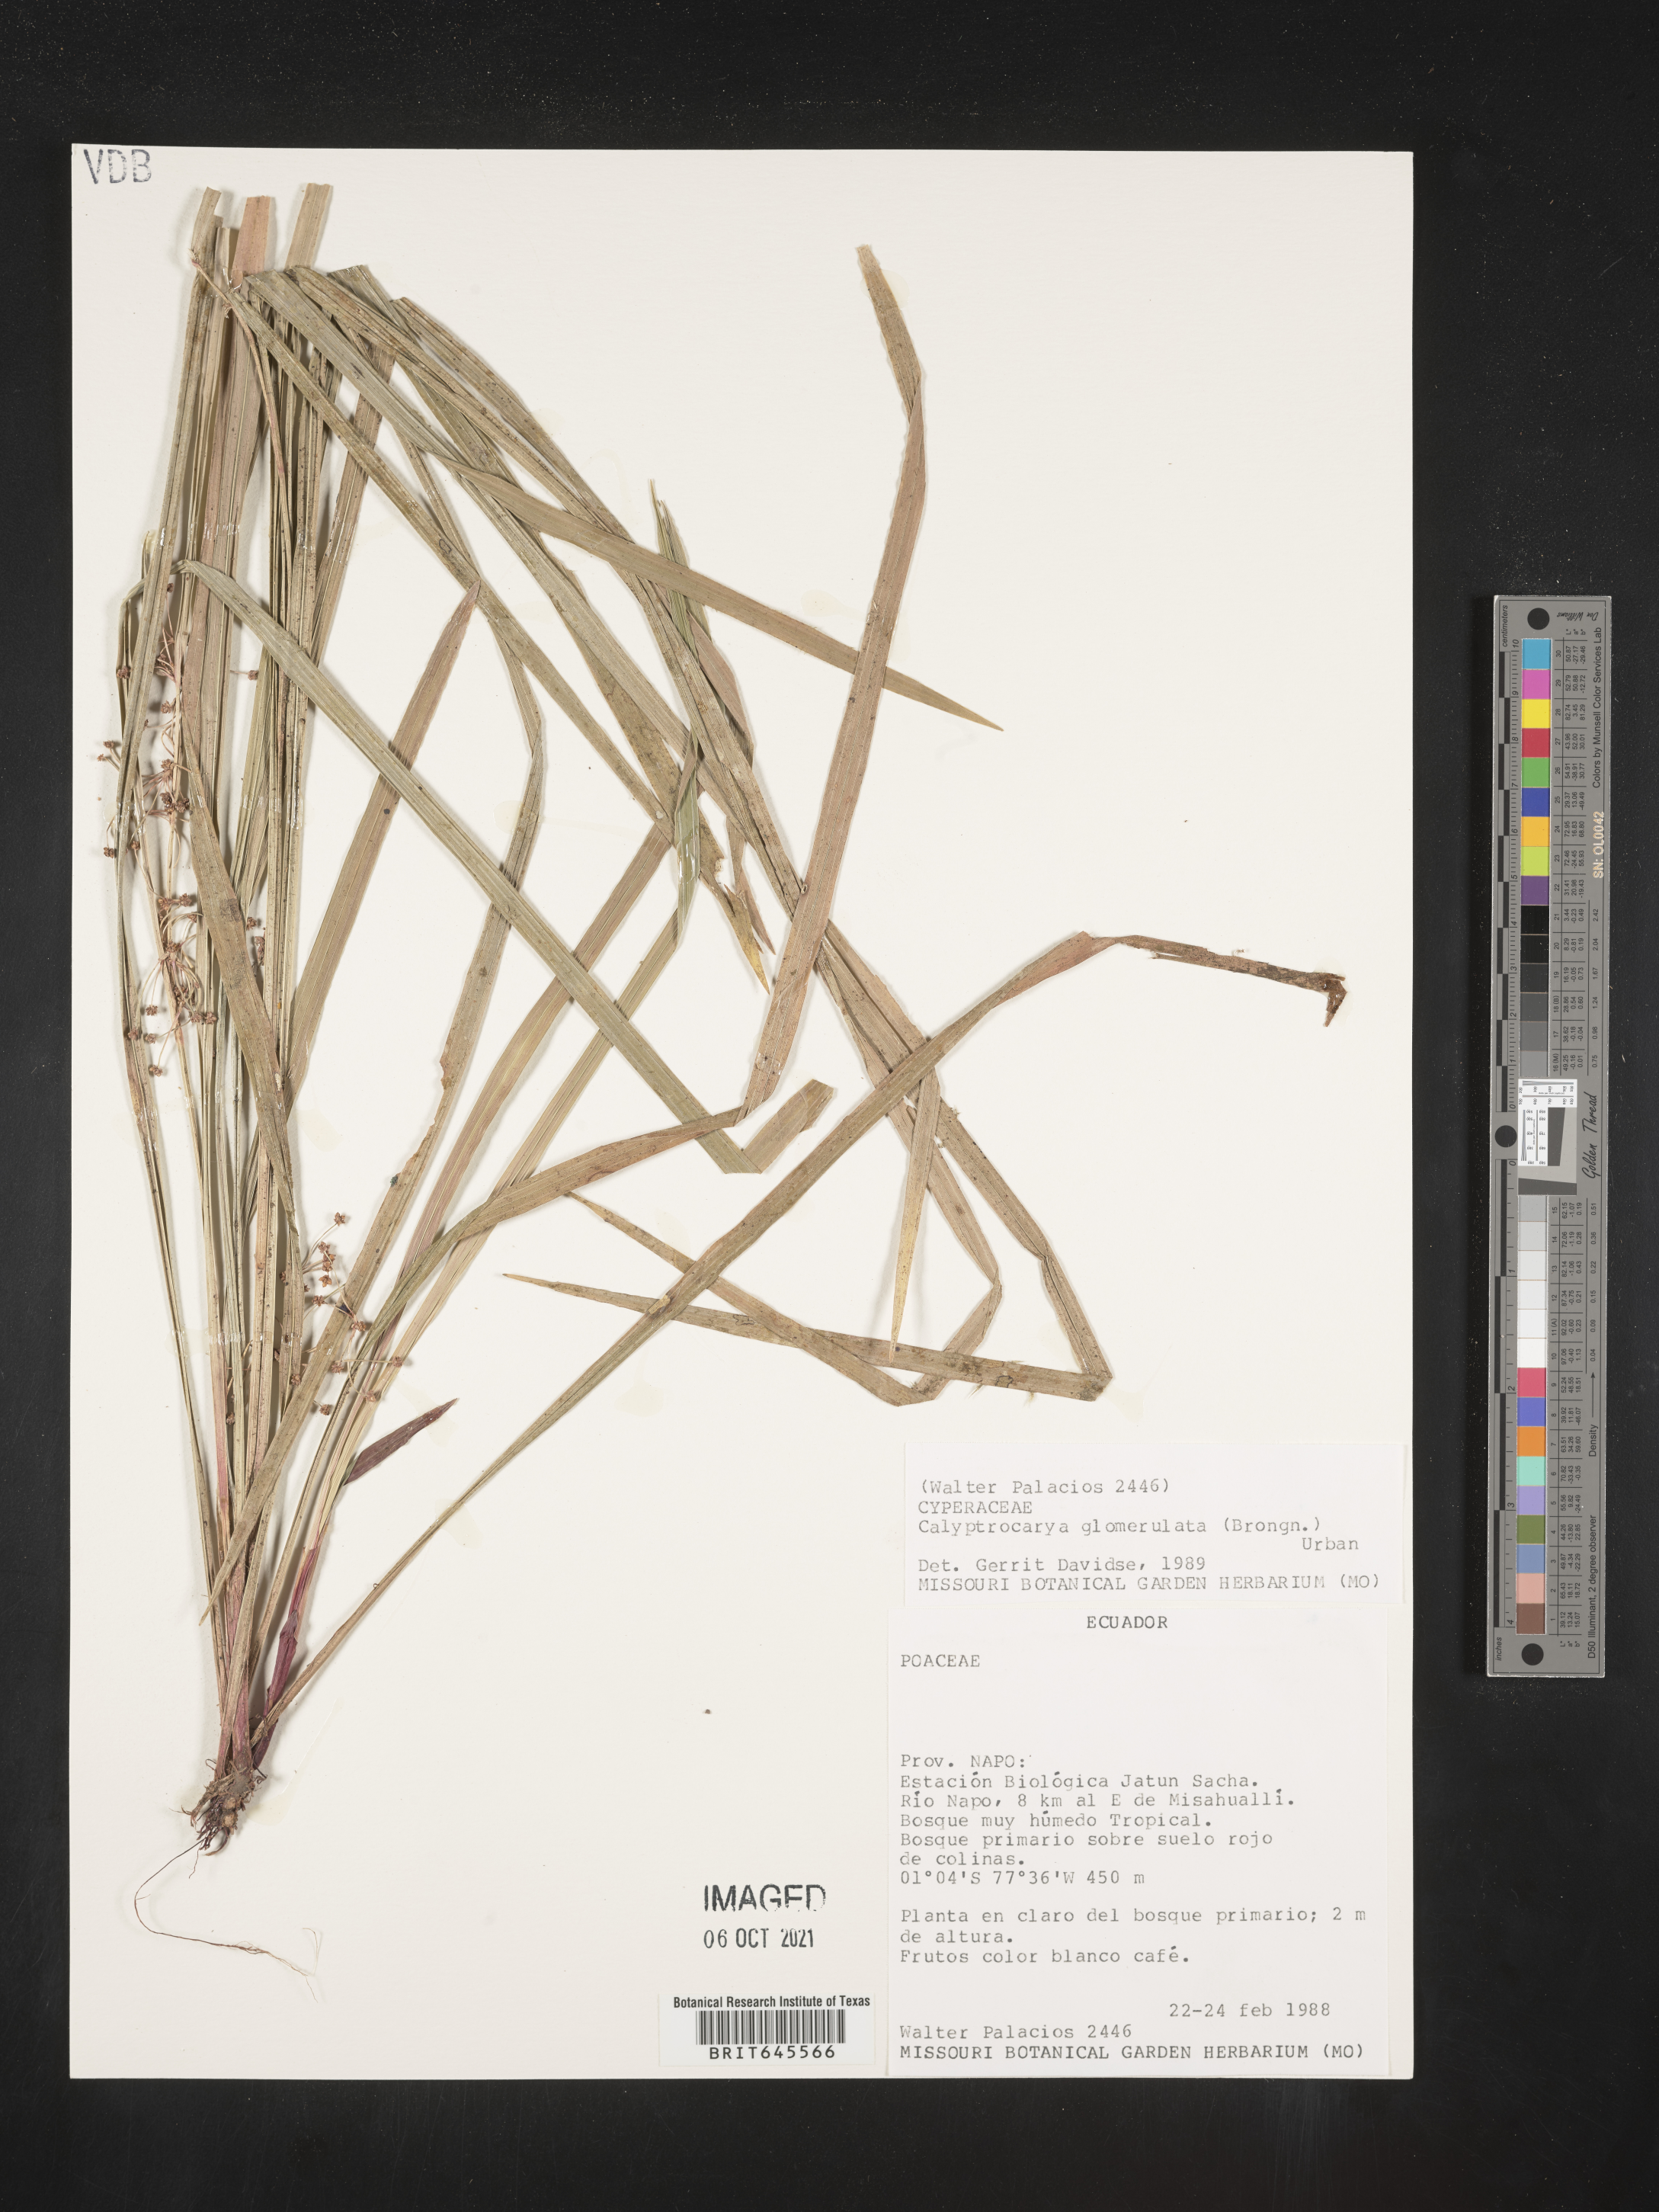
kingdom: Plantae
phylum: Tracheophyta
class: Liliopsida
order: Poales
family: Cyperaceae
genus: Calyptrocarya
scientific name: Calyptrocarya glomerulata
